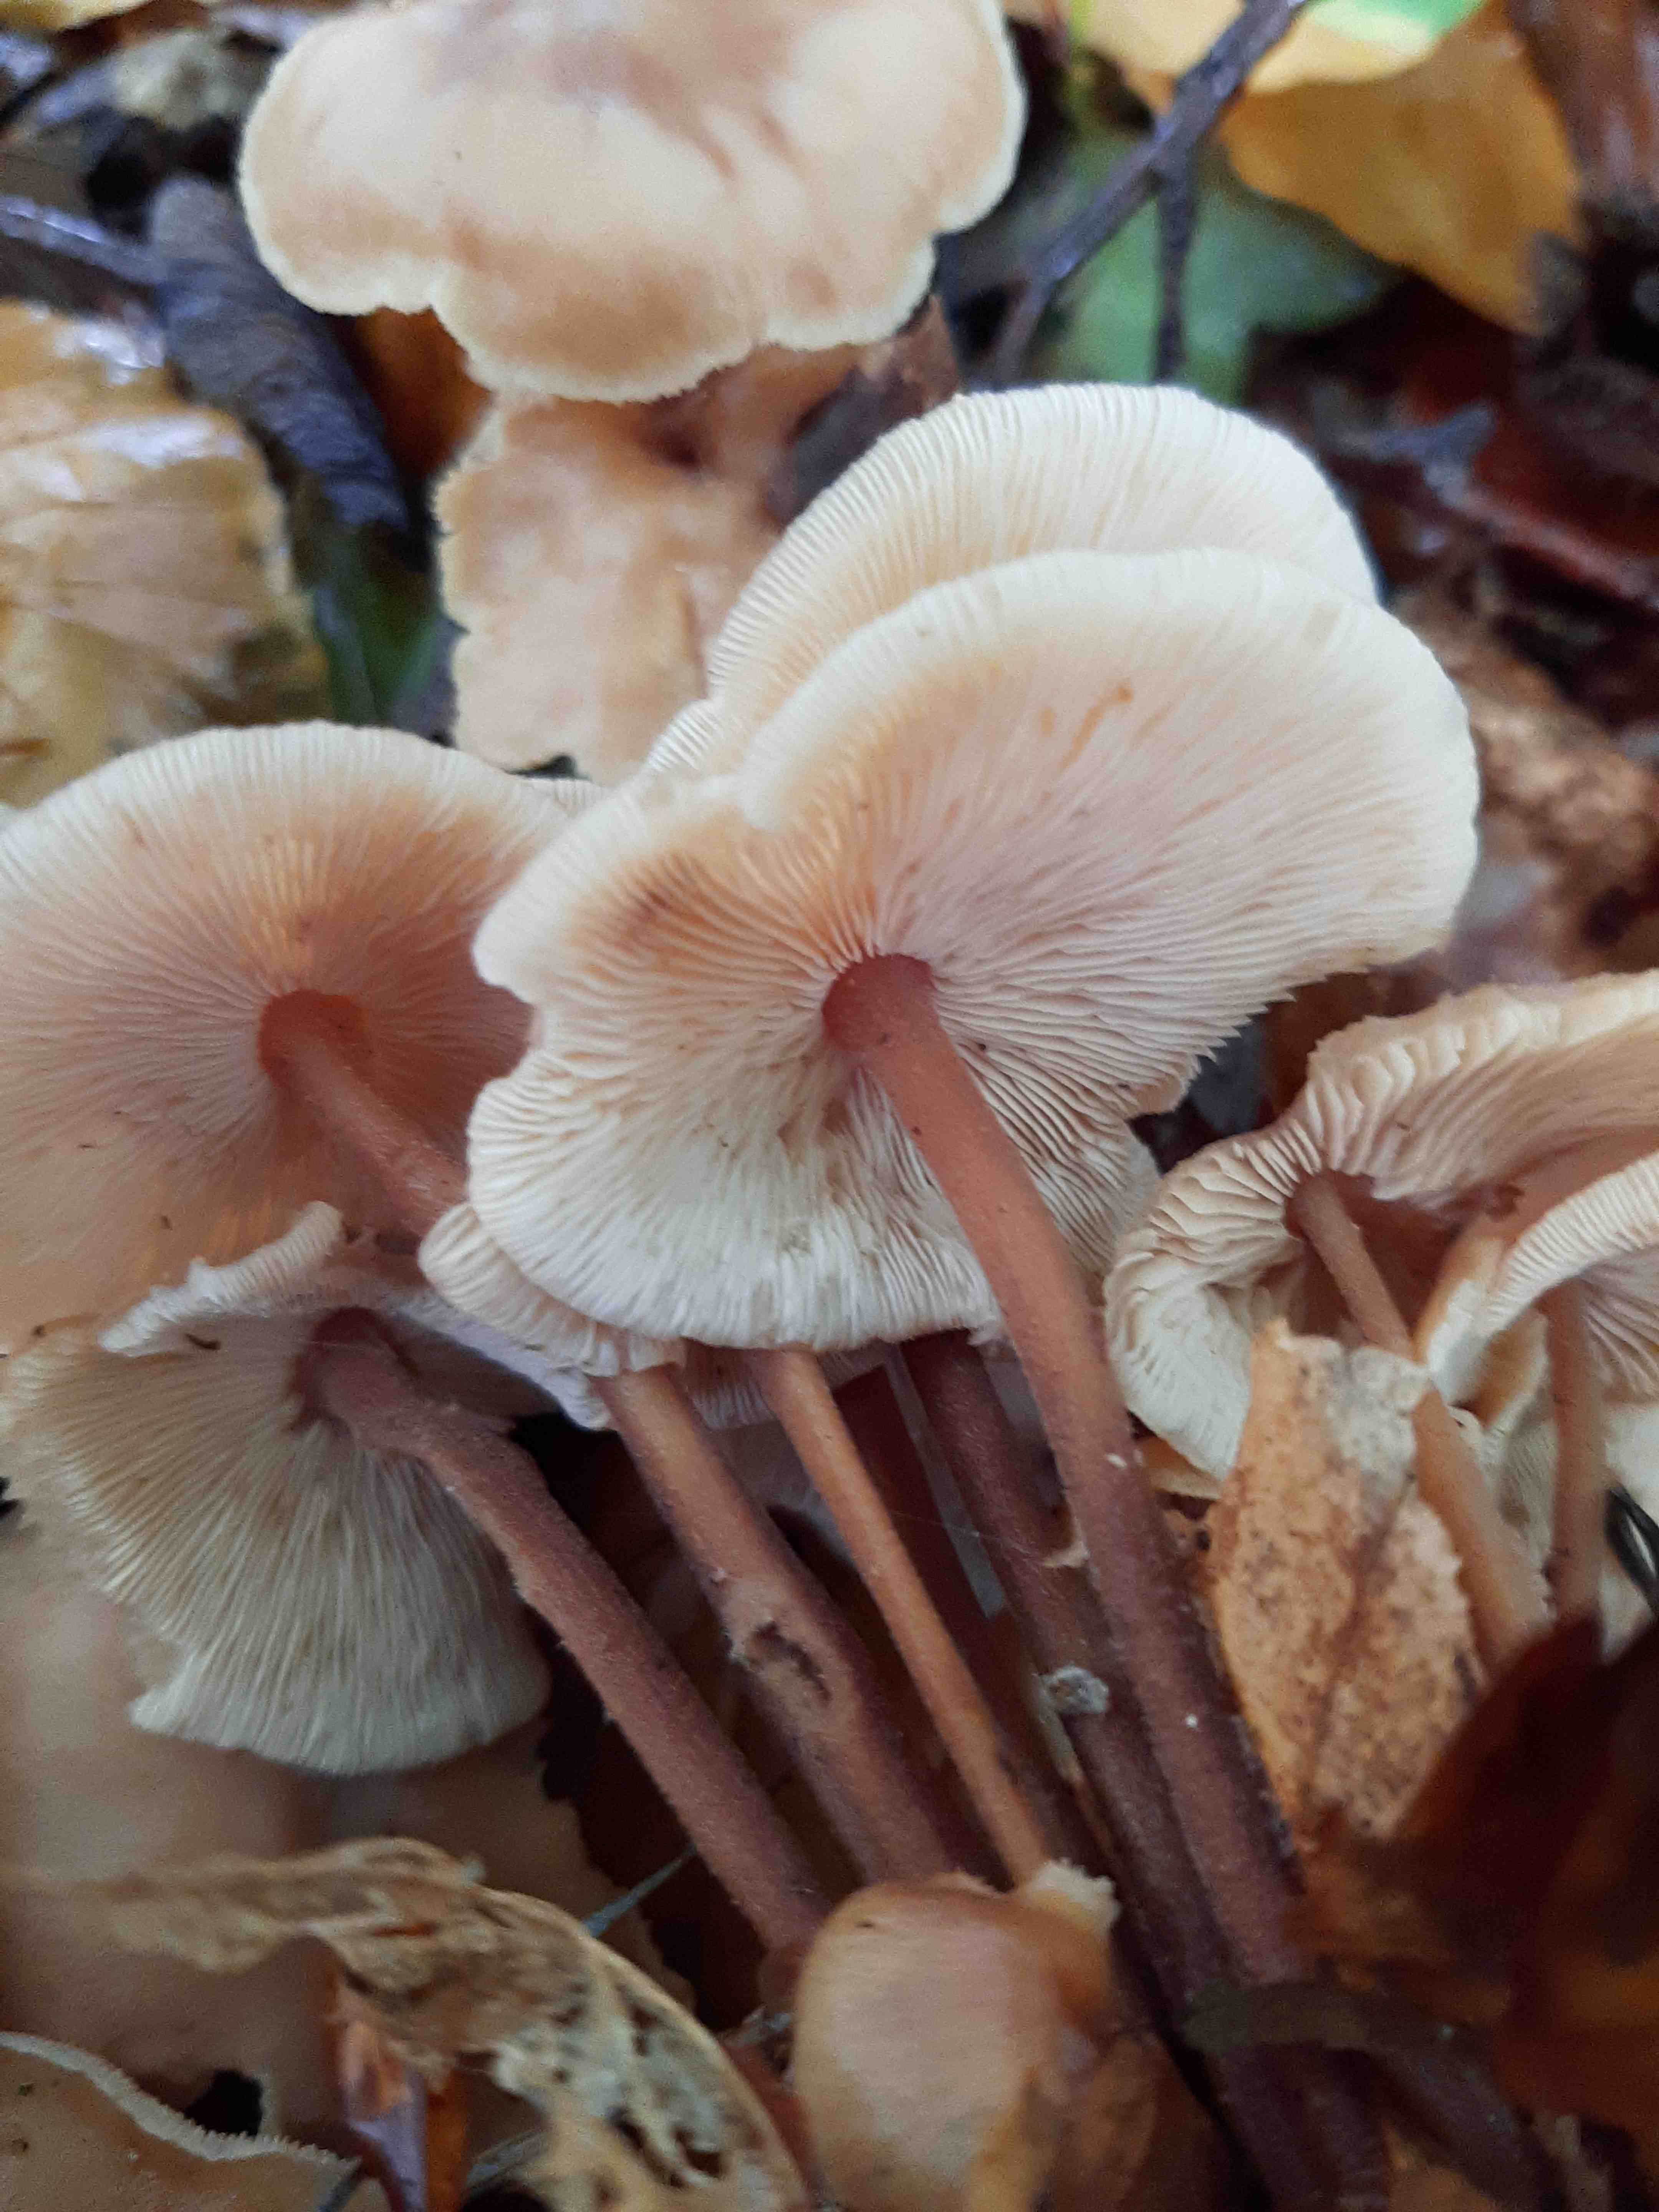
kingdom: Fungi
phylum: Basidiomycota
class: Agaricomycetes
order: Agaricales
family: Omphalotaceae
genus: Collybiopsis
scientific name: Collybiopsis confluens
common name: knippe-fladhat
